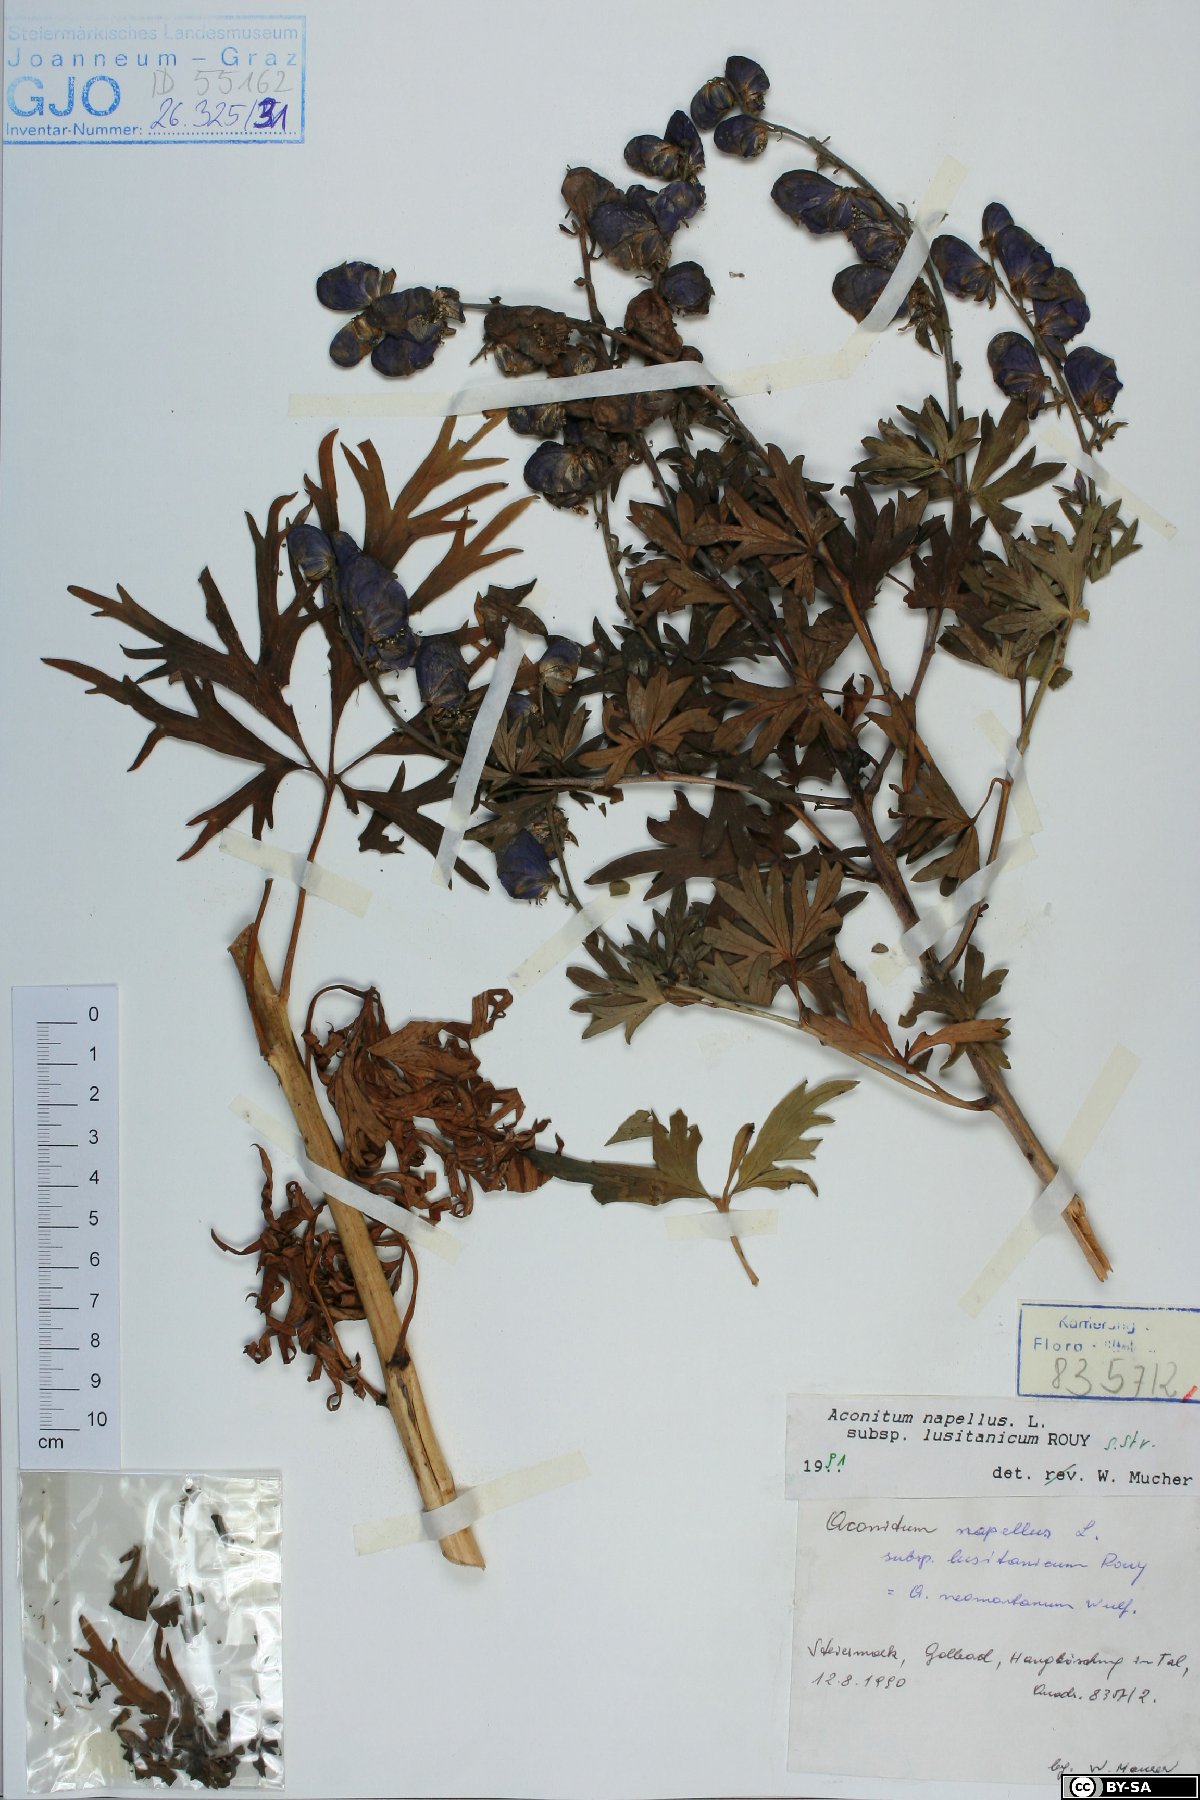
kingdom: Plantae
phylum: Tracheophyta
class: Magnoliopsida
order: Ranunculales
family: Ranunculaceae
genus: Aconitum
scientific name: Aconitum napellus
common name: Garden monkshood
